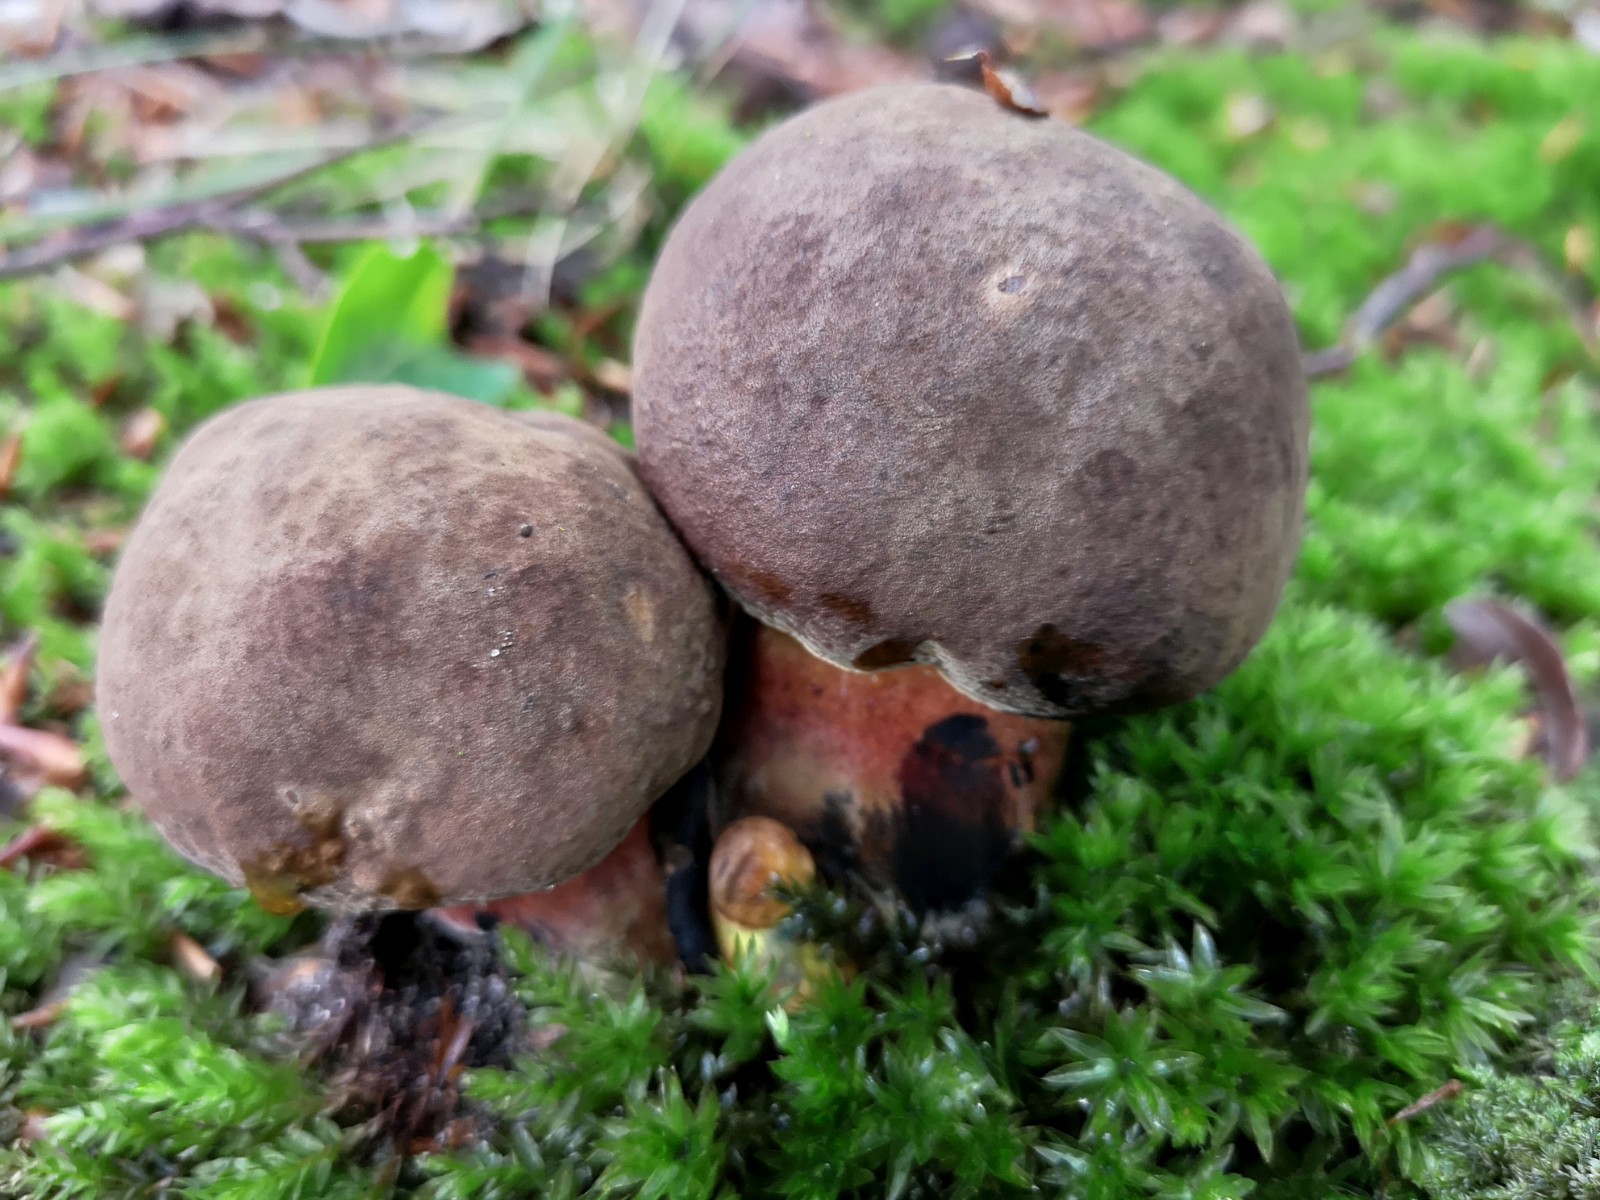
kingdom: Fungi
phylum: Basidiomycota
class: Agaricomycetes
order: Boletales
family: Boletaceae
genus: Neoboletus
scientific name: Neoboletus erythropus
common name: punktstokket indigorørhat
